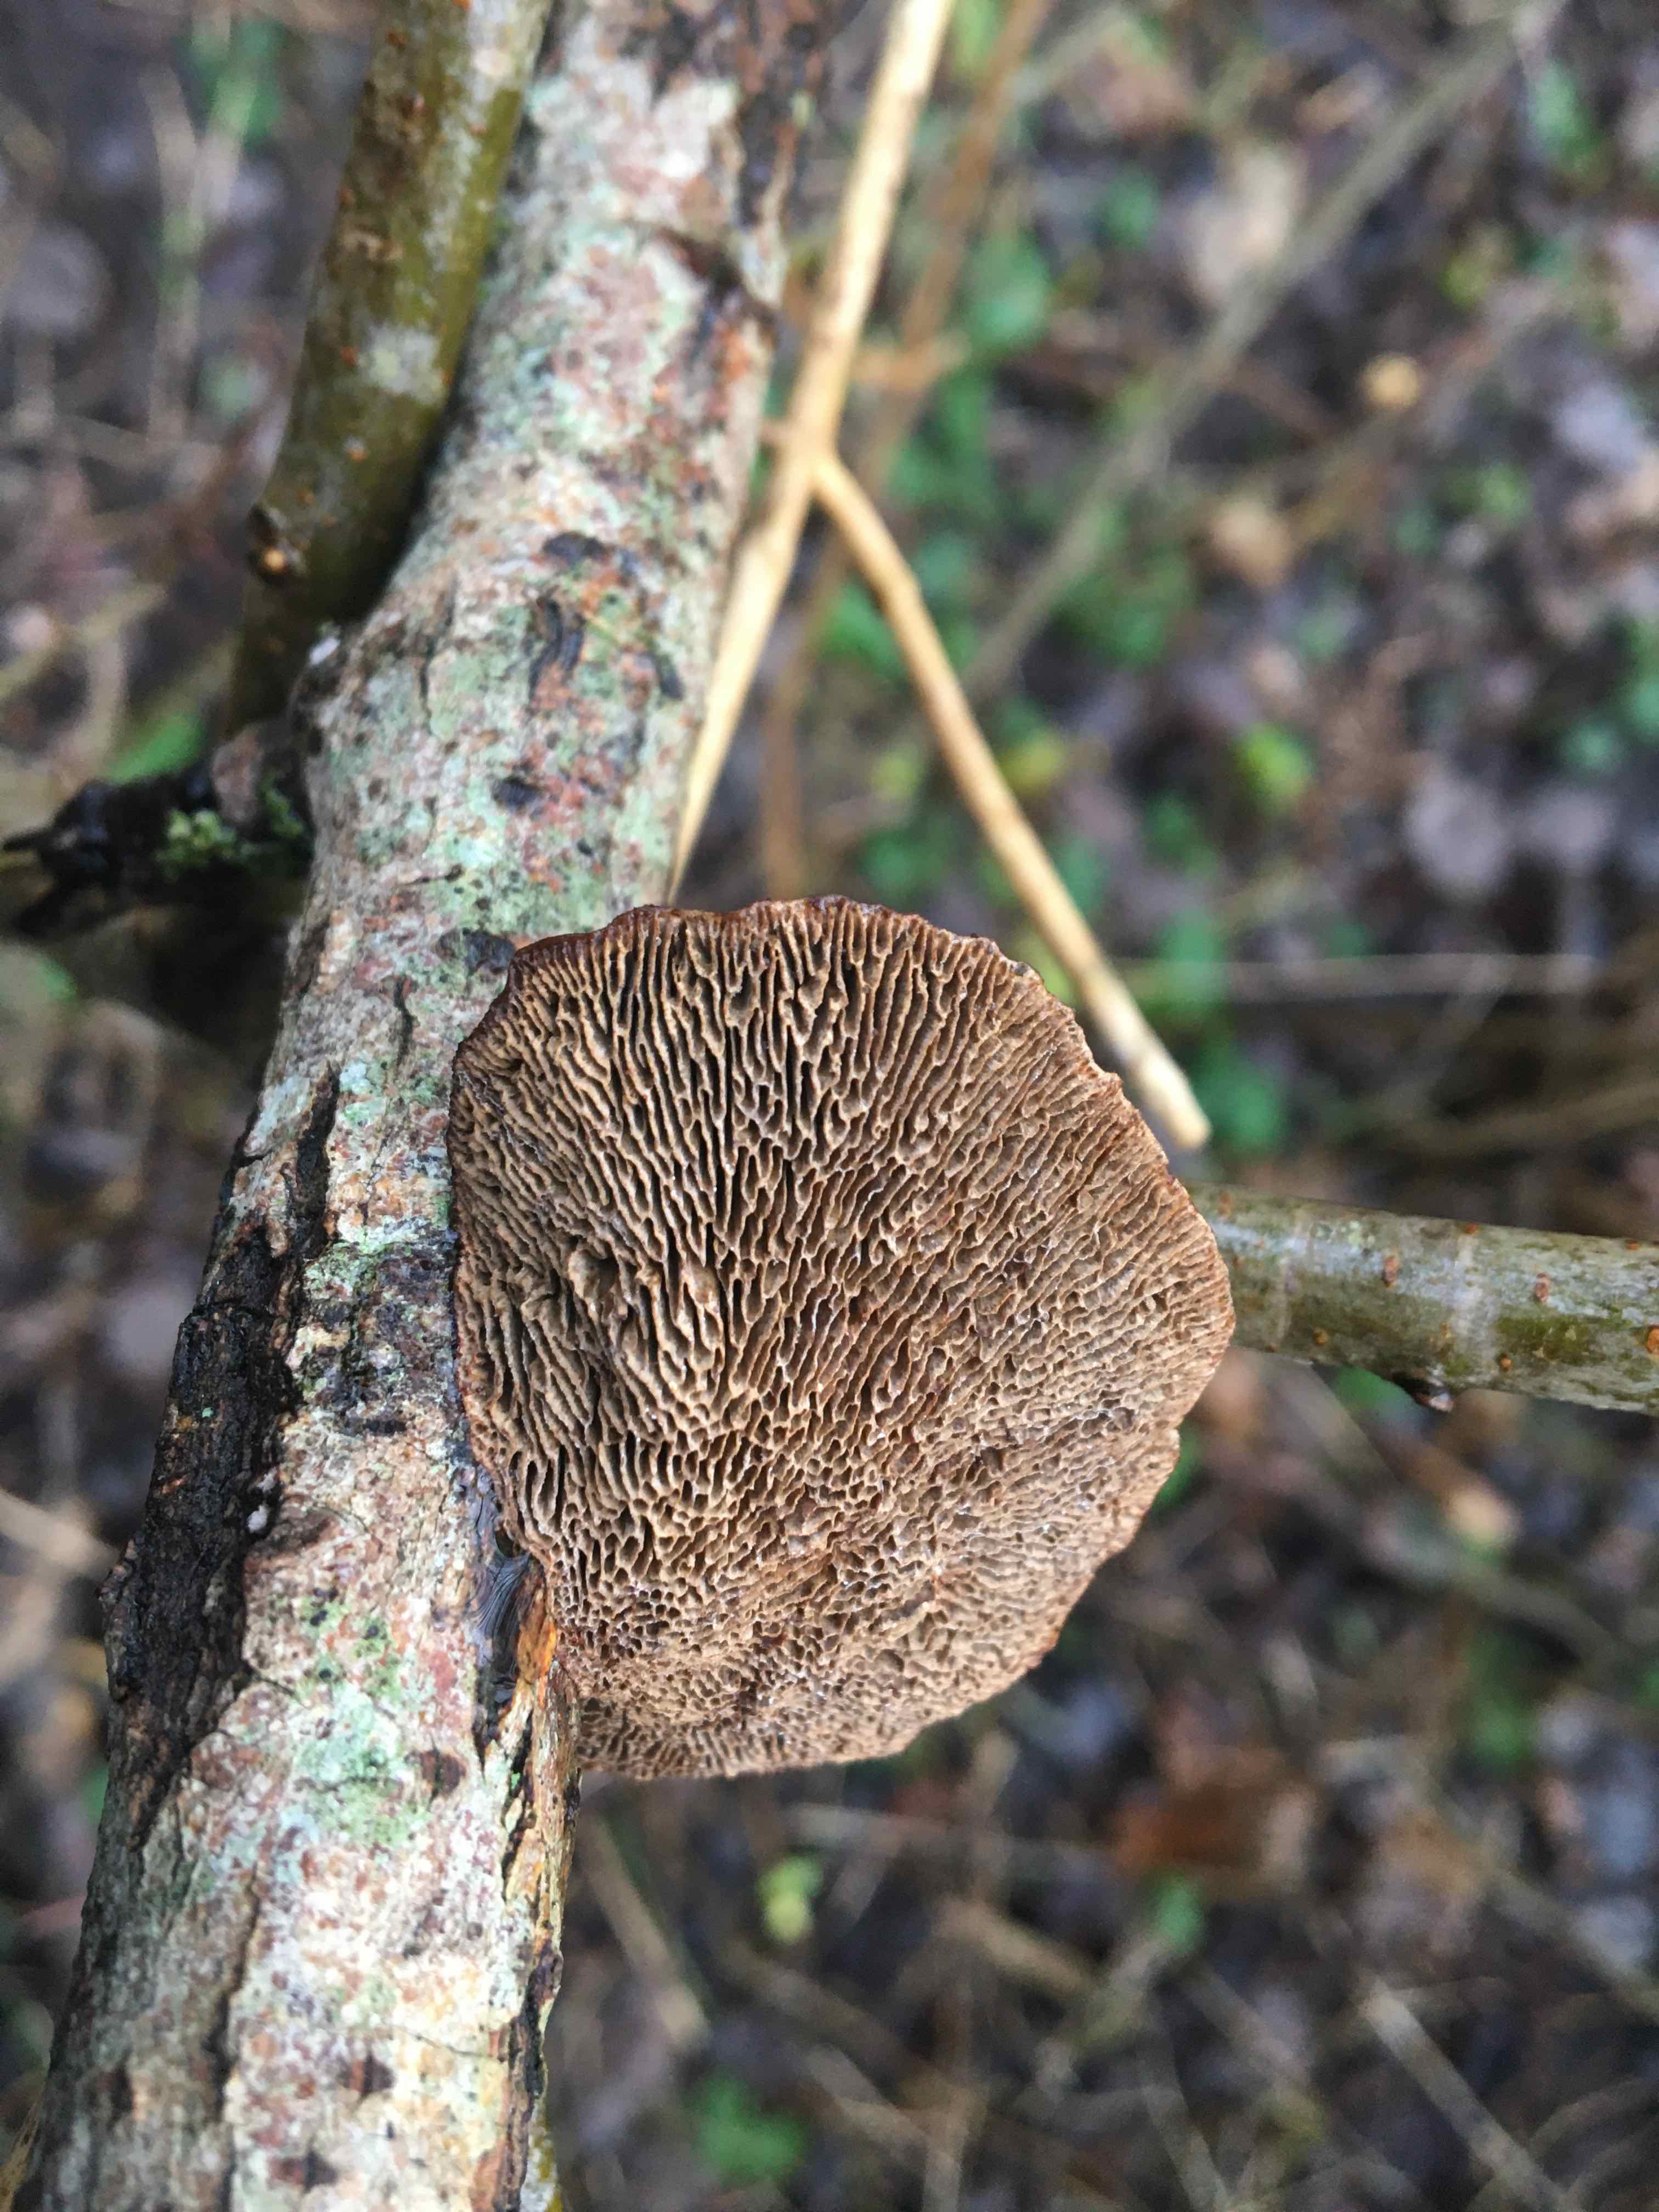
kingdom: Fungi
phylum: Basidiomycota
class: Agaricomycetes
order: Polyporales
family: Polyporaceae
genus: Daedaleopsis
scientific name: Daedaleopsis confragosa
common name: rødmende læderporesvamp
